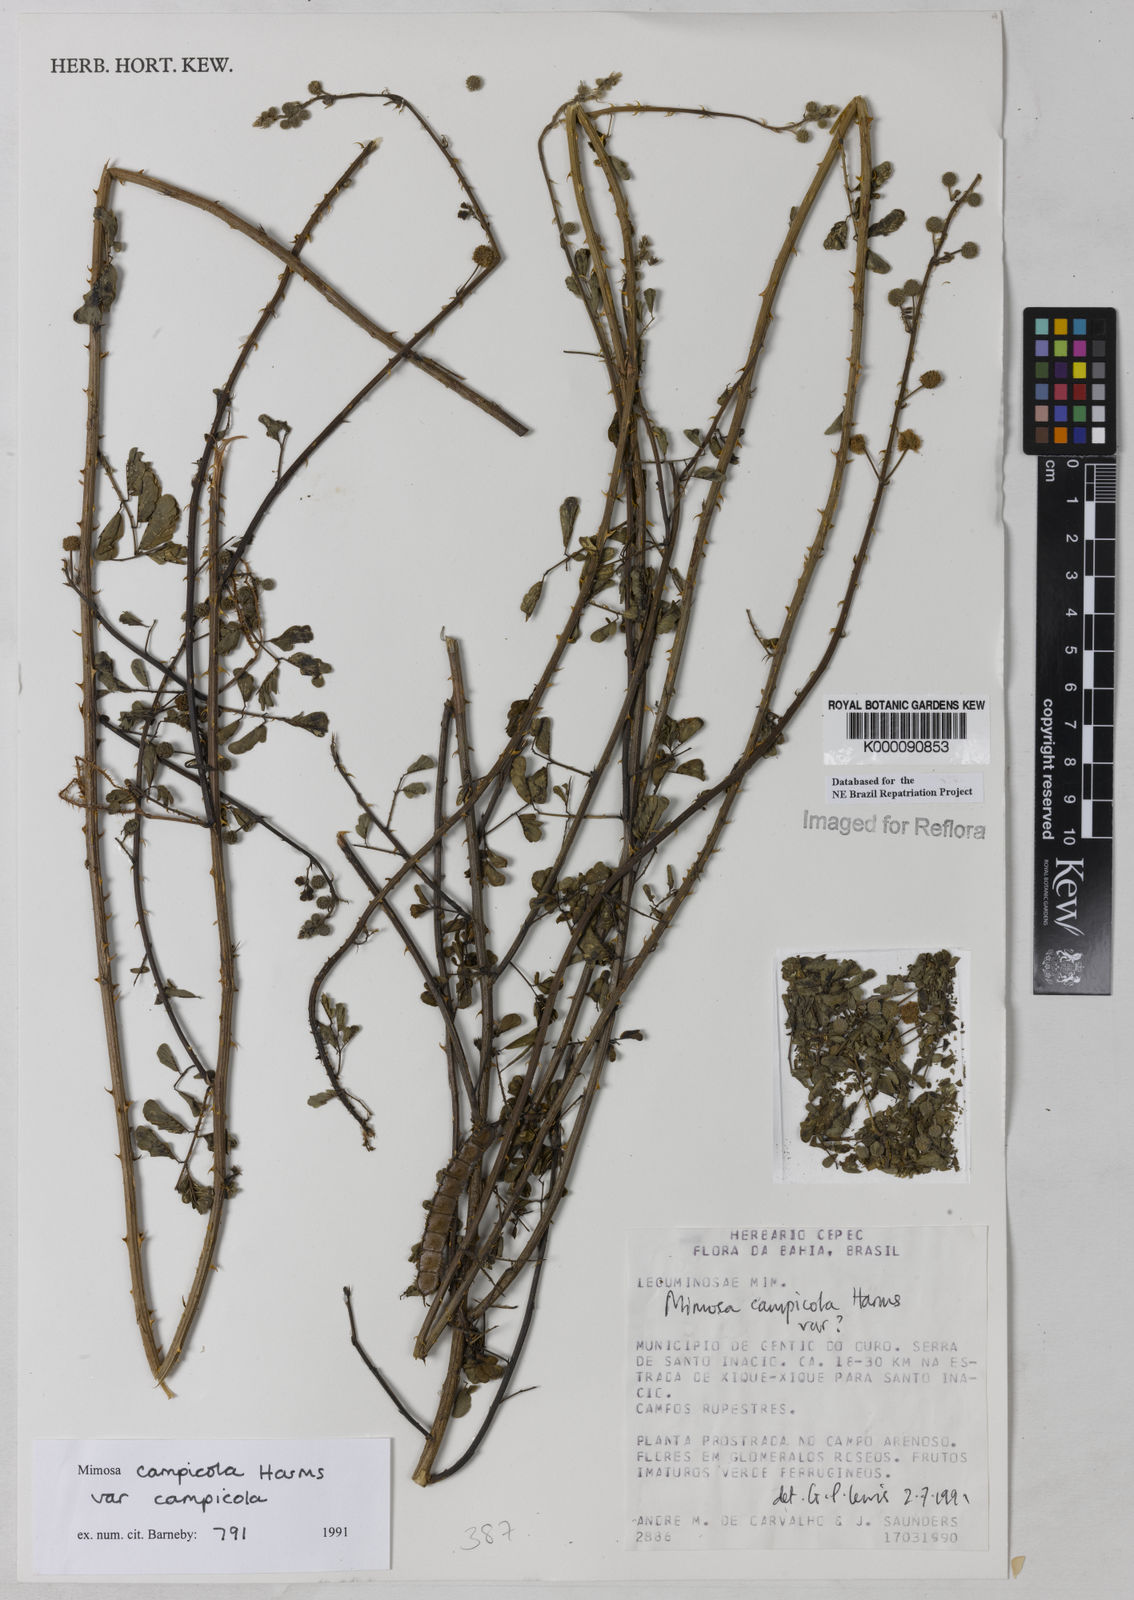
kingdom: Plantae
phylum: Tracheophyta
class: Magnoliopsida
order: Fabales
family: Fabaceae
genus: Mimosa
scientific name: Mimosa campicola
